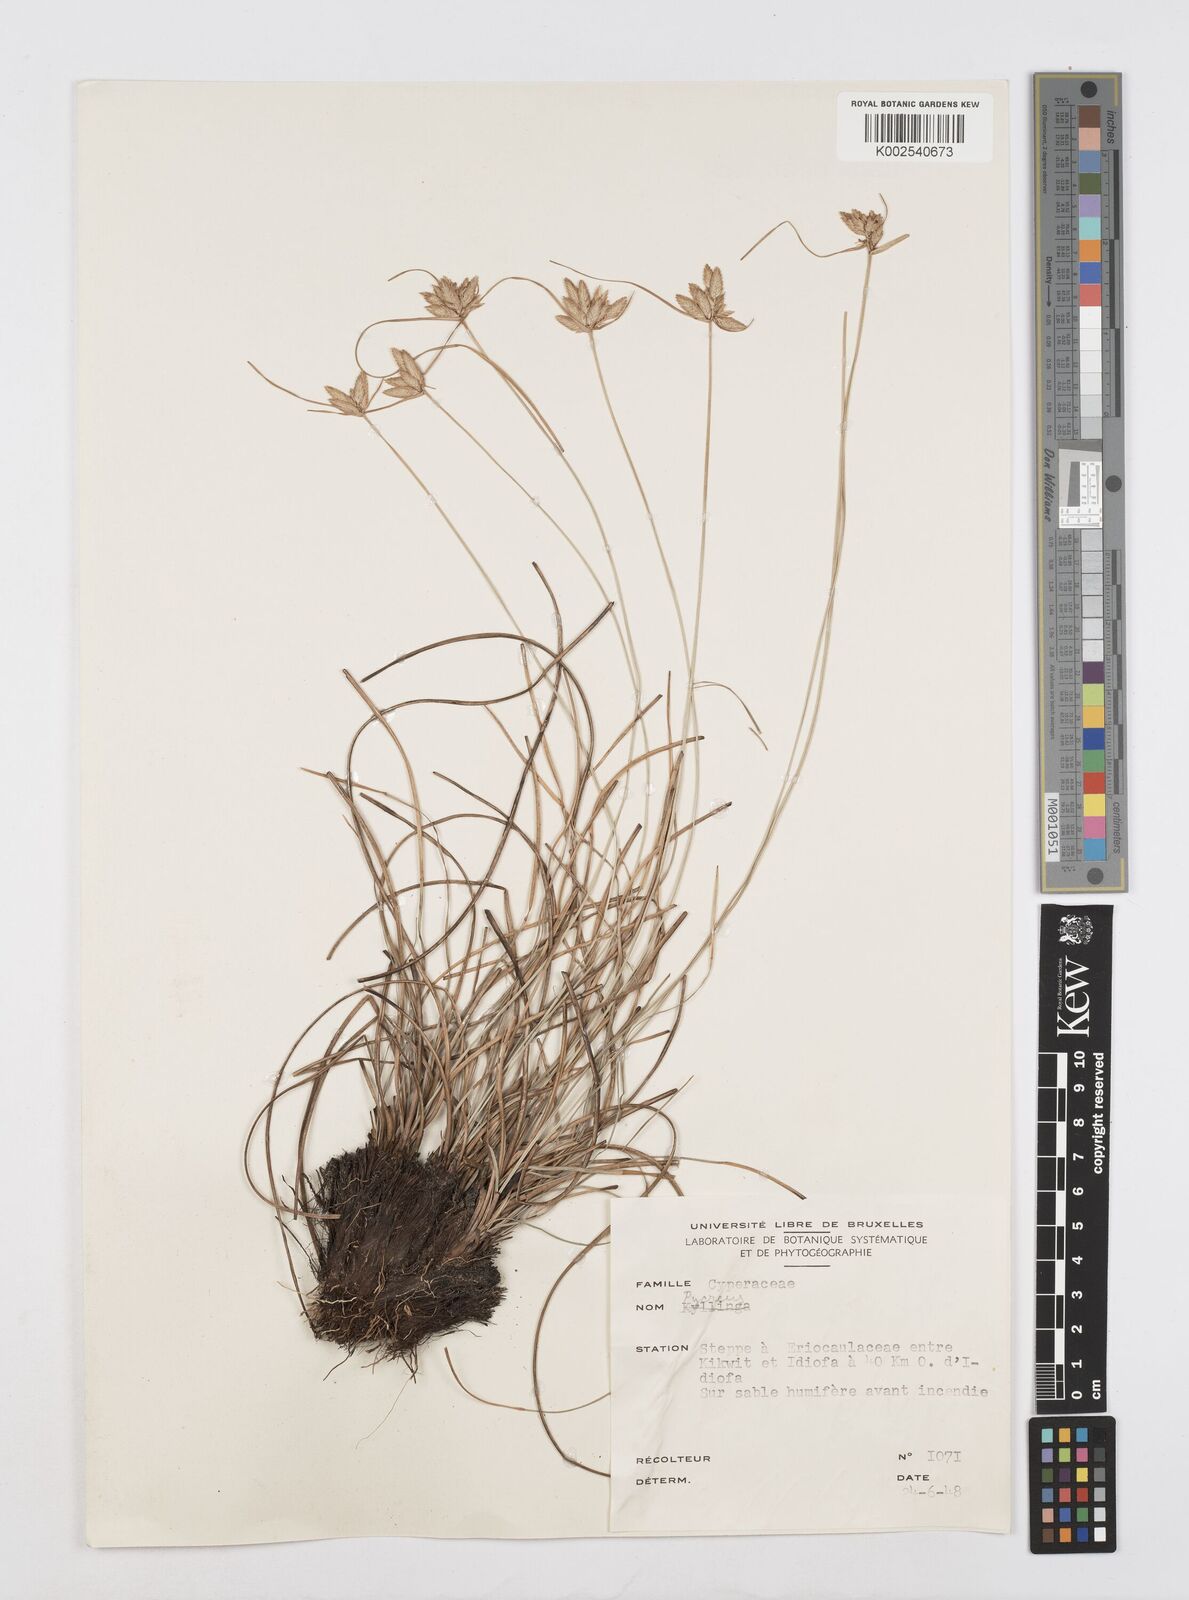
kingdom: Plantae
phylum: Tracheophyta
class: Liliopsida
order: Poales
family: Cyperaceae
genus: Cyperus
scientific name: Cyperus
